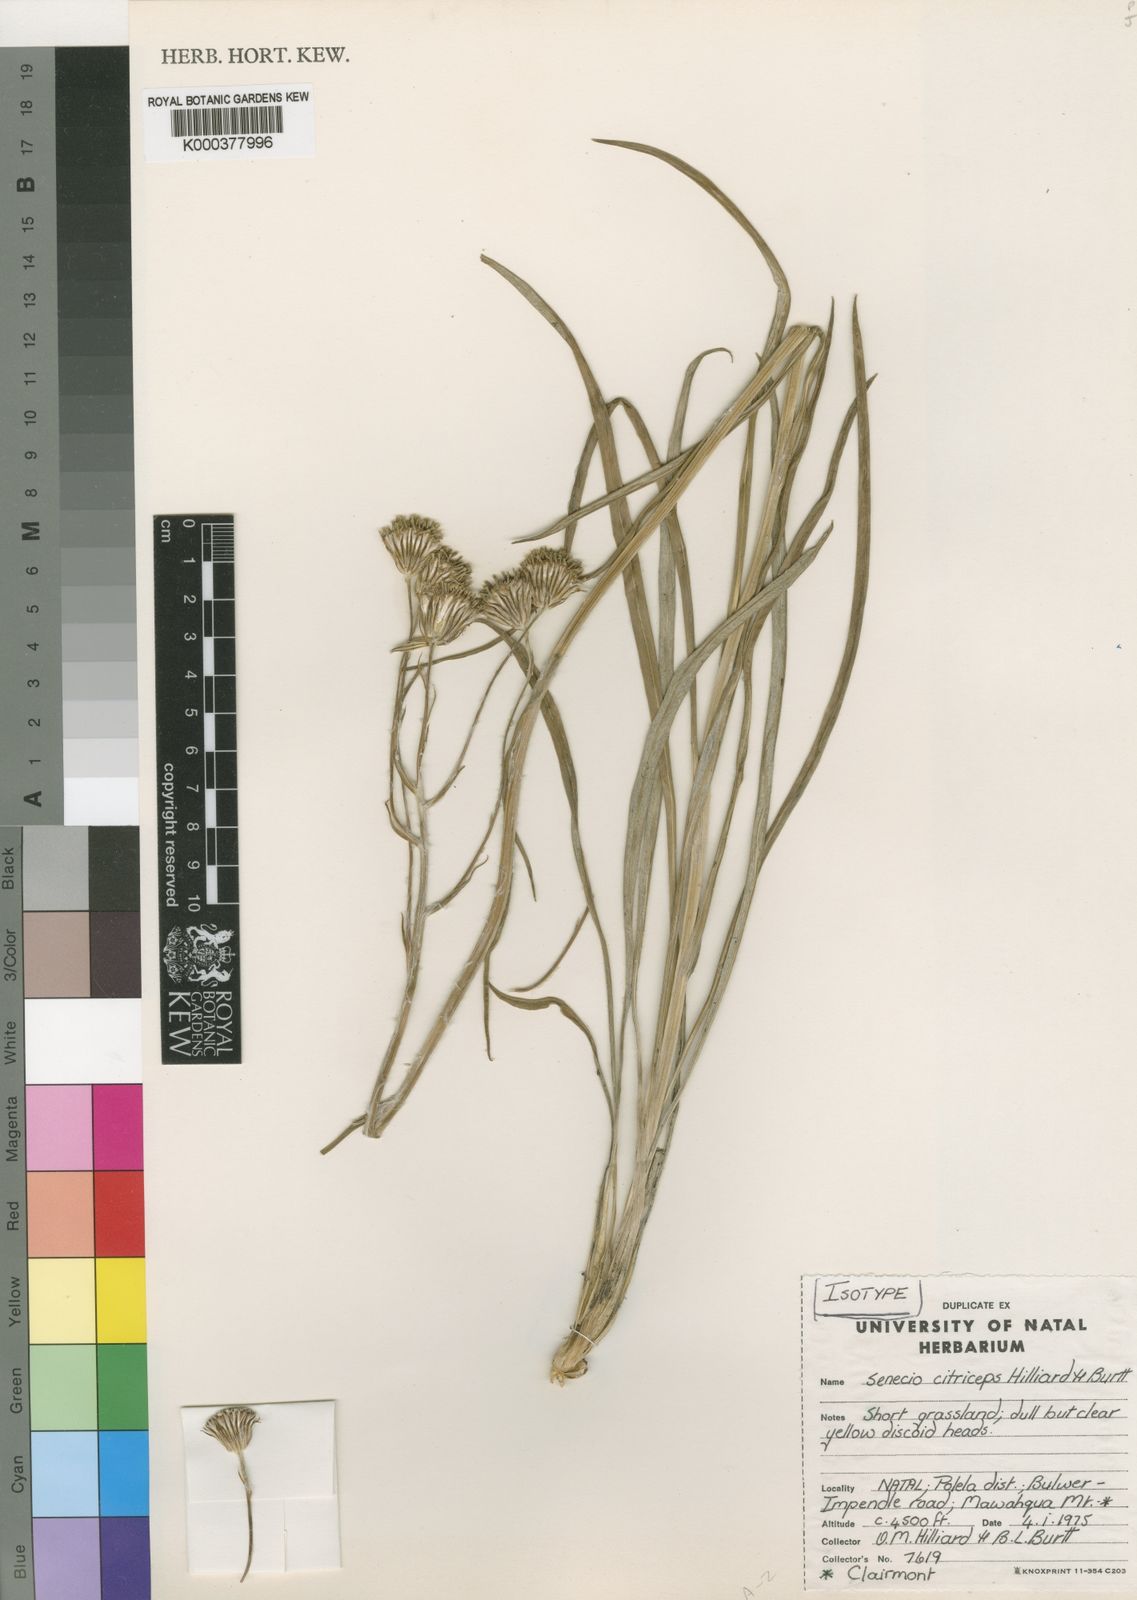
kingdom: Plantae
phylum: Tracheophyta
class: Magnoliopsida
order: Asterales
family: Asteraceae
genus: Senecio
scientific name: Senecio citriceps
